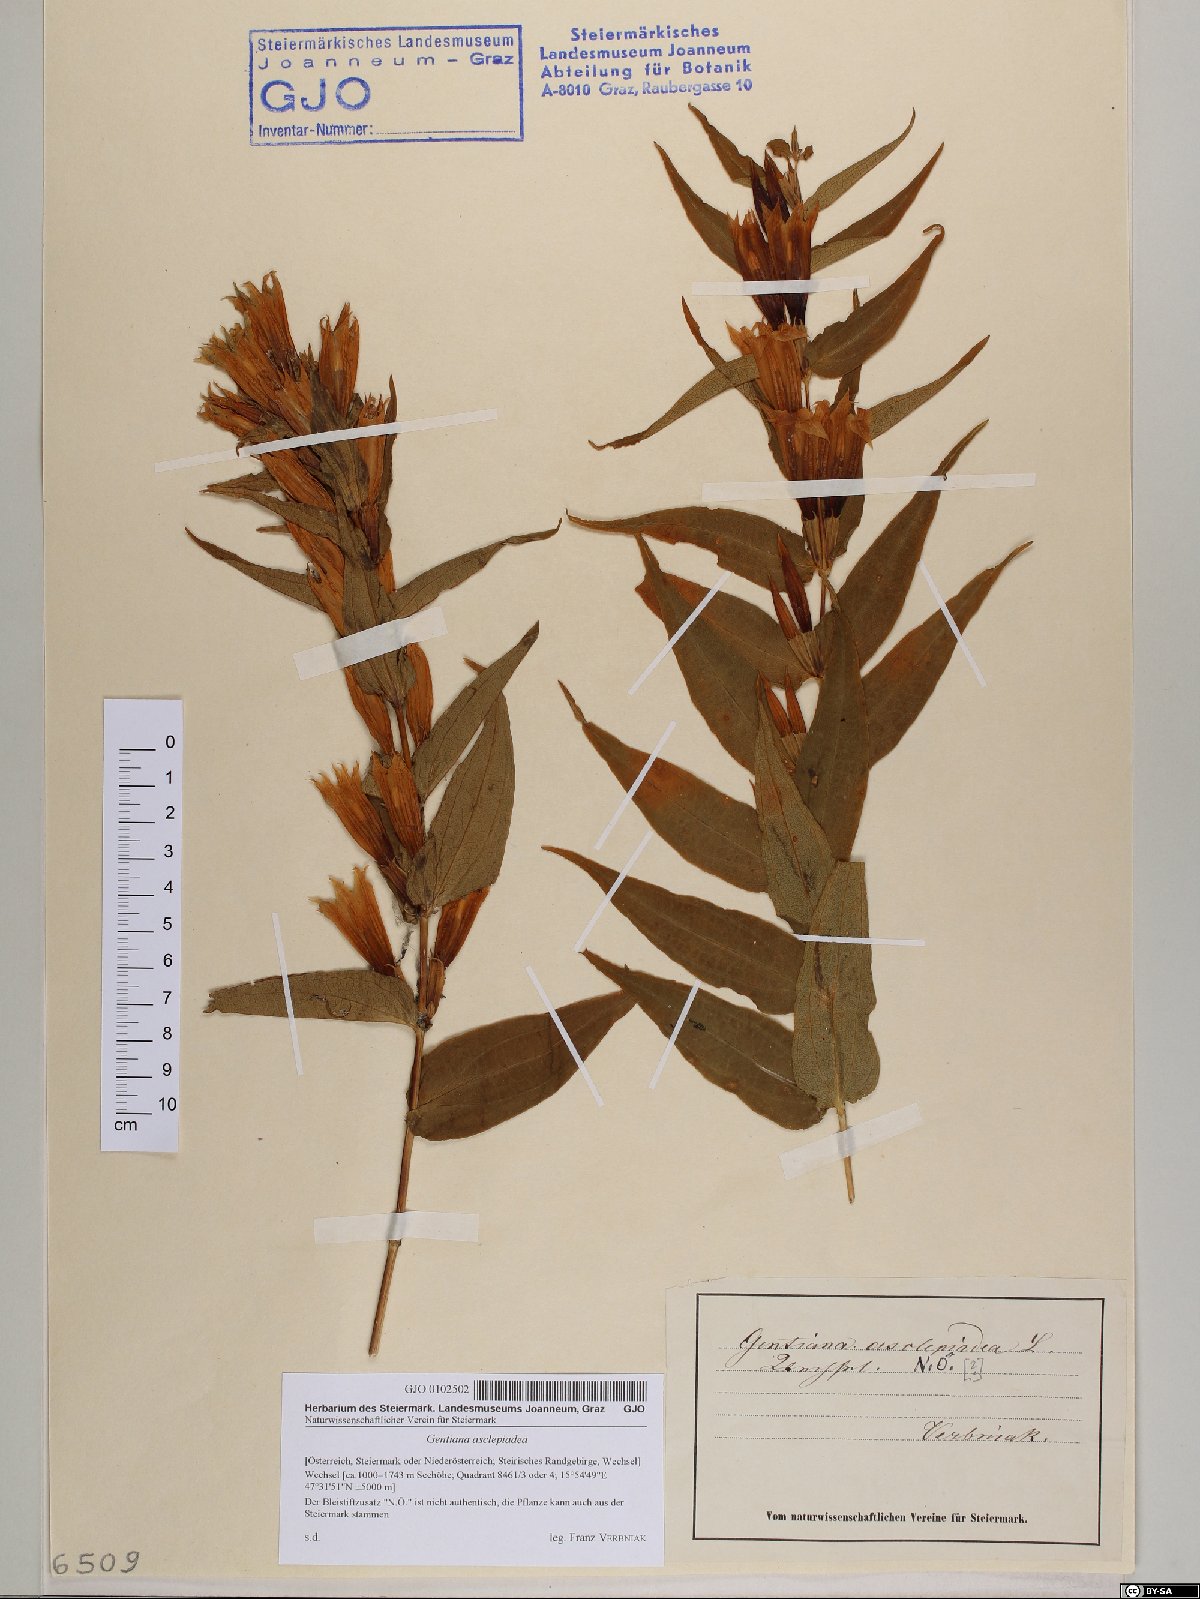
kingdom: Plantae
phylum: Tracheophyta
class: Magnoliopsida
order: Gentianales
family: Gentianaceae
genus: Gentiana
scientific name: Gentiana asclepiadea
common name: Willow gentian
